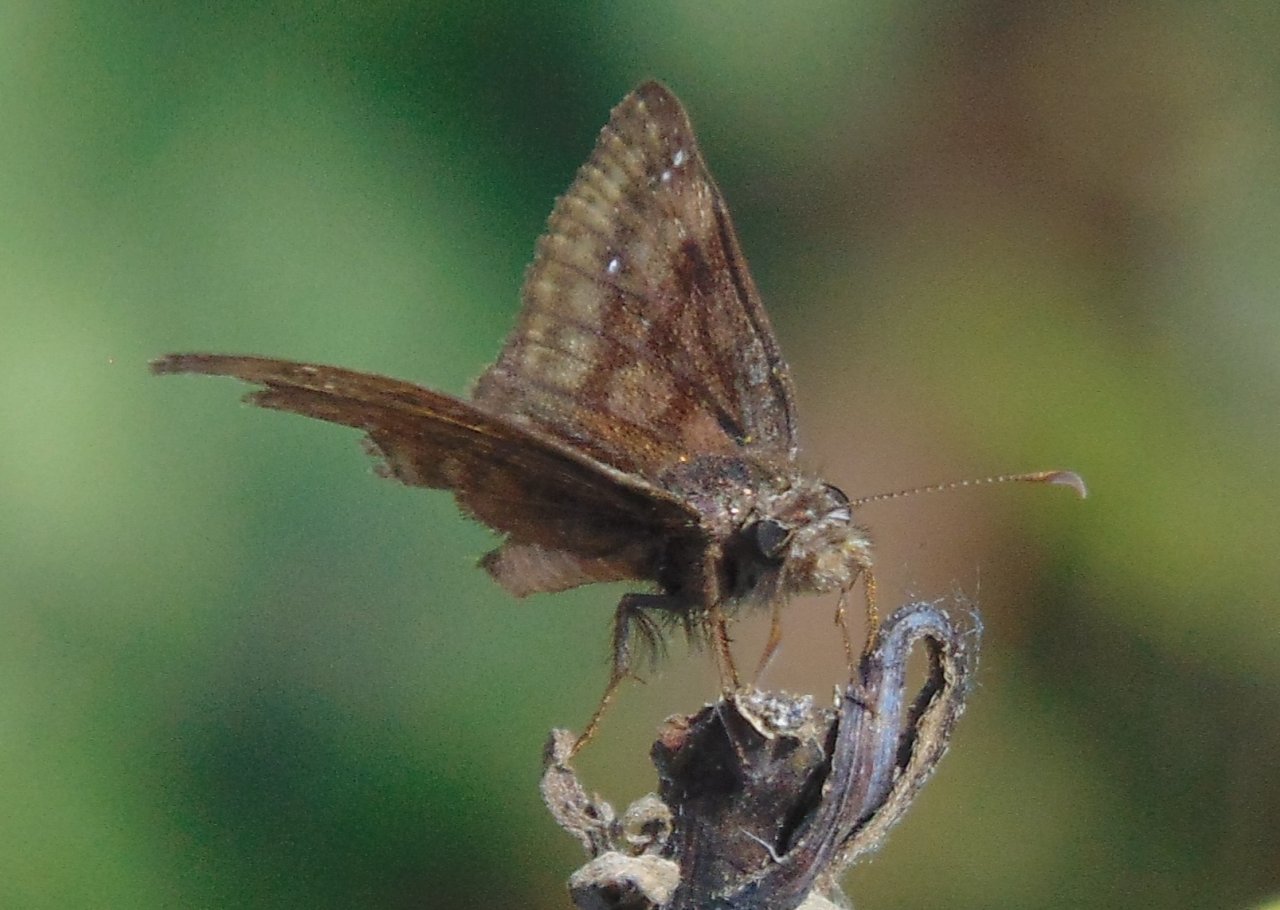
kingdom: Animalia
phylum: Arthropoda
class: Insecta
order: Lepidoptera
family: Hesperiidae
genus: Gesta
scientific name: Gesta
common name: Wild Indigo Duskywing
